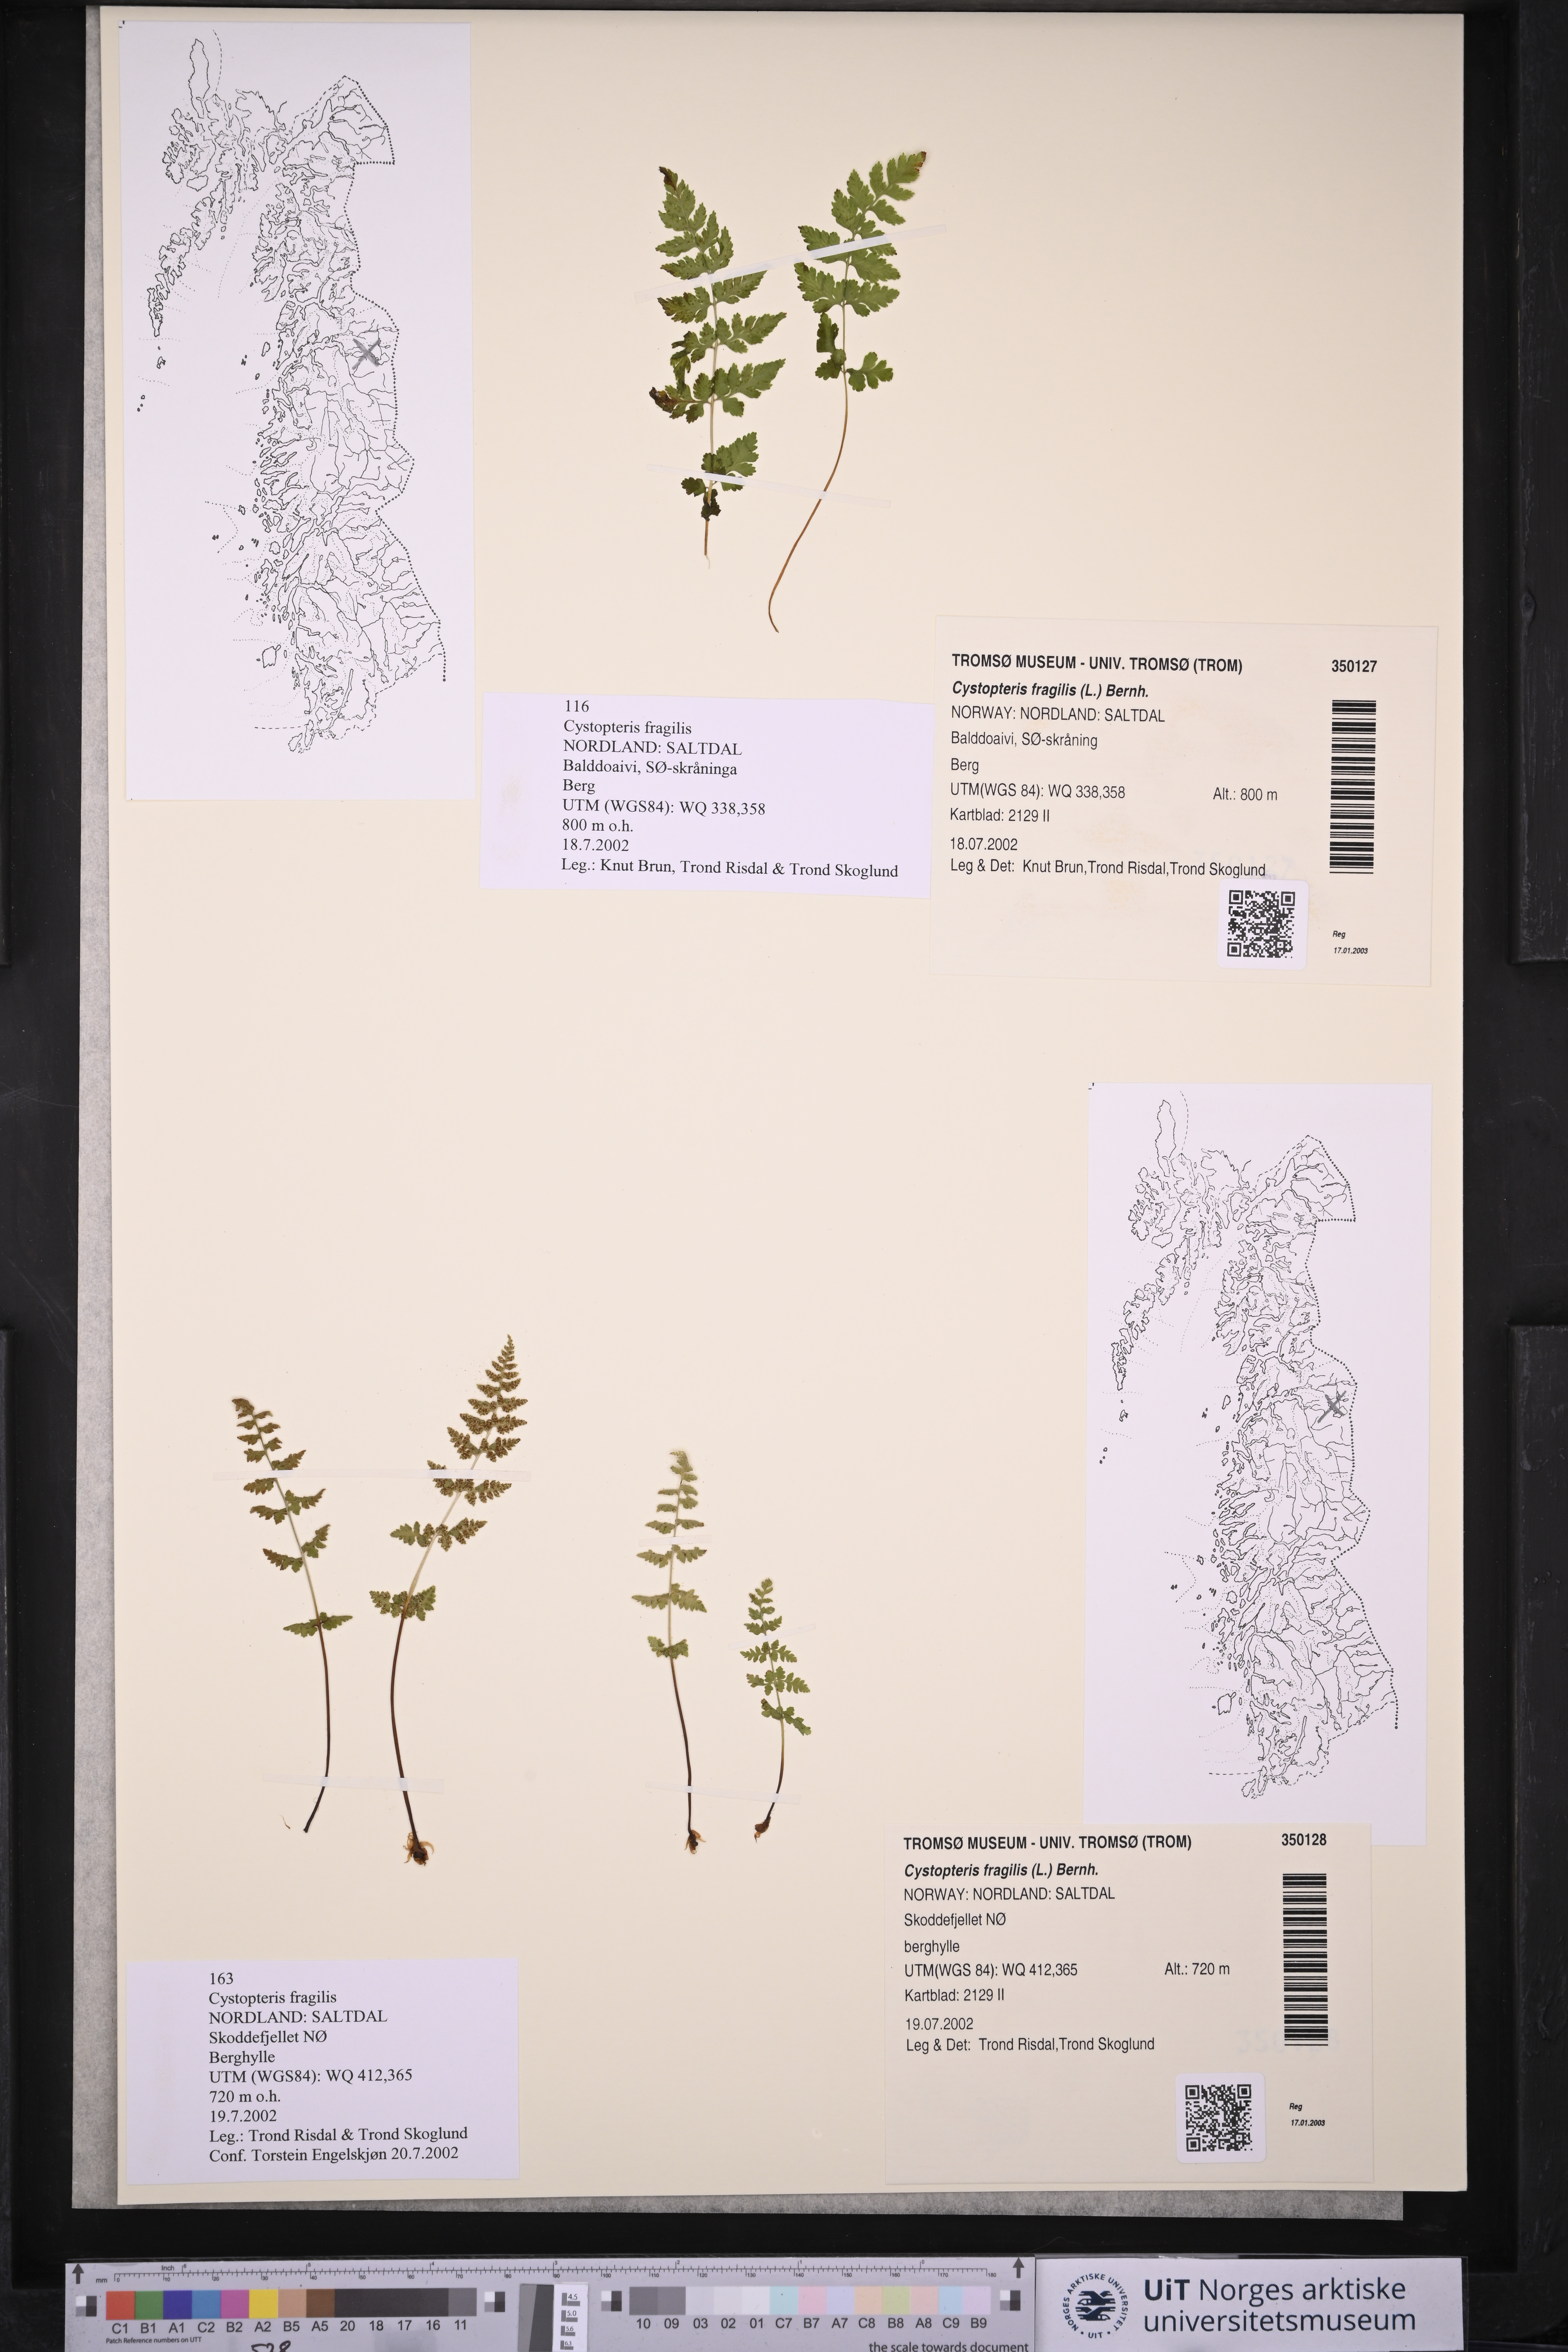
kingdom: Plantae
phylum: Tracheophyta
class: Polypodiopsida
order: Polypodiales
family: Cystopteridaceae
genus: Cystopteris
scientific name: Cystopteris fragilis
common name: Brittle bladder fern
